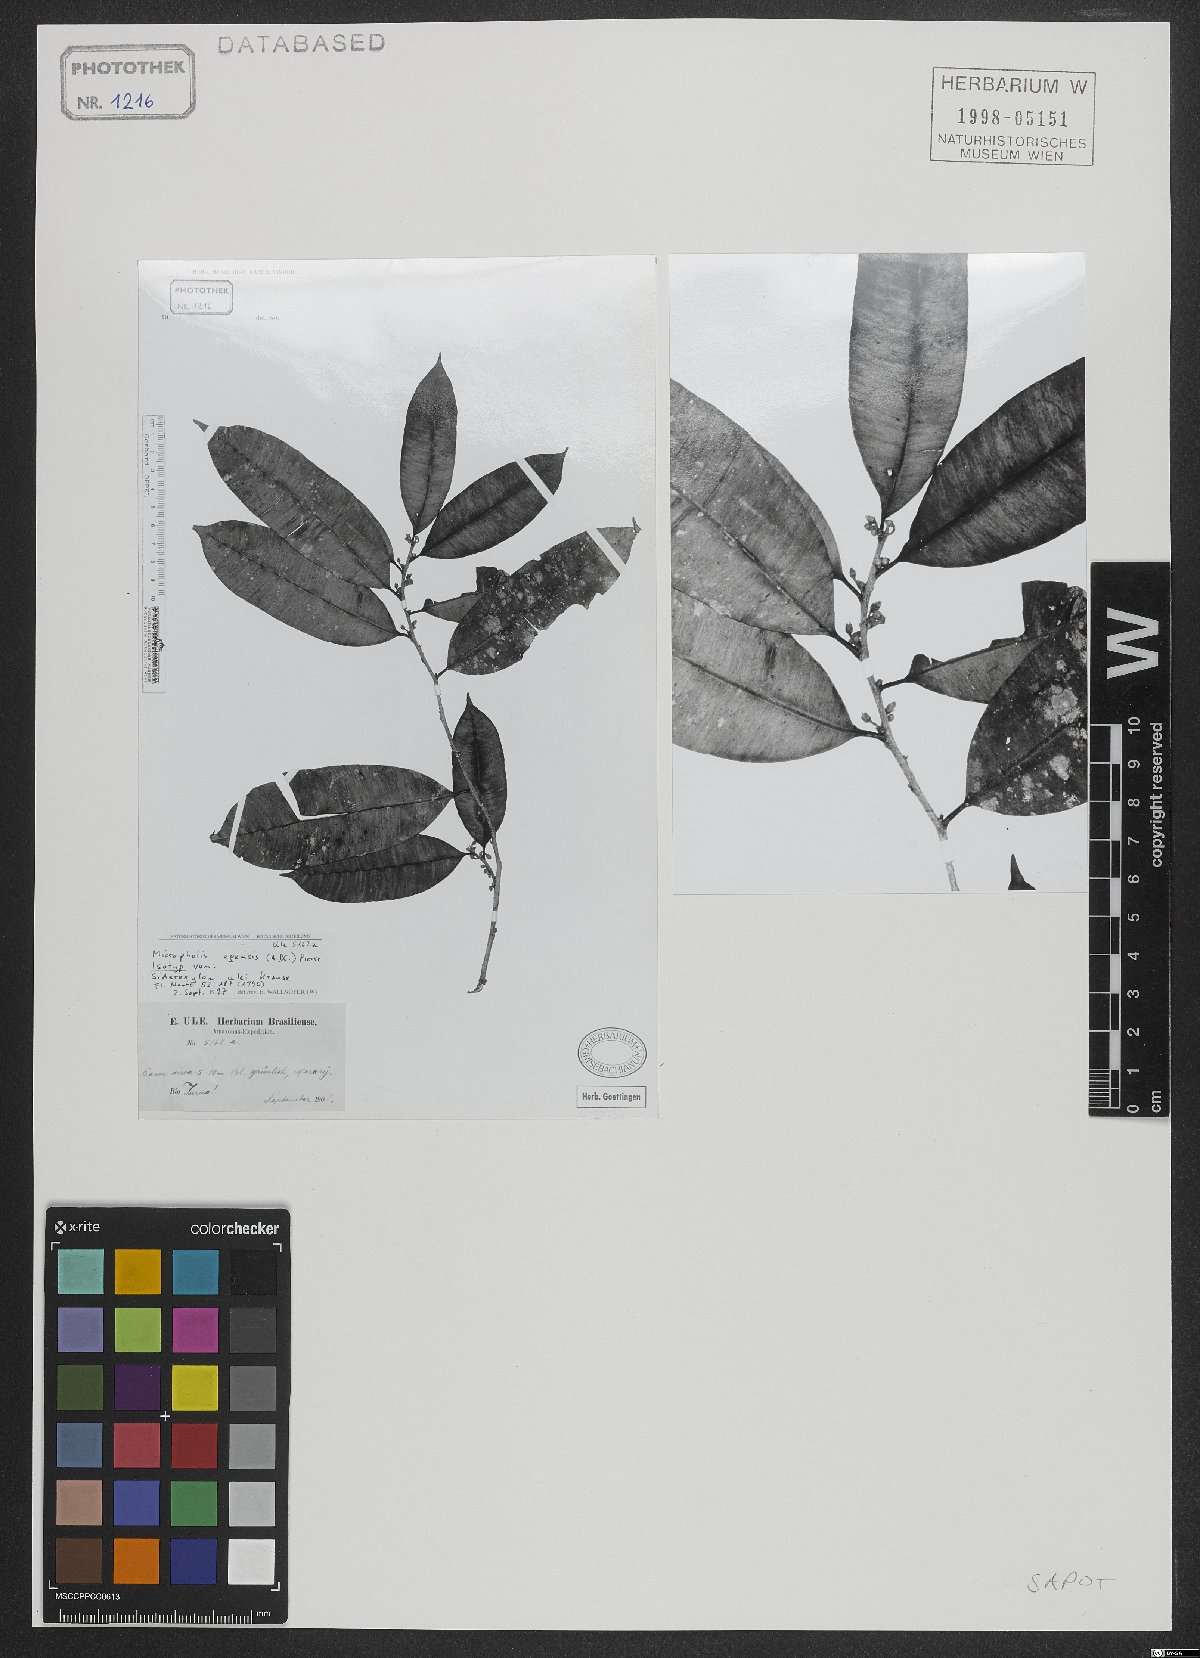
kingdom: Plantae
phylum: Tracheophyta
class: Magnoliopsida
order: Ericales
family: Sapotaceae
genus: Micropholis
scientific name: Micropholis egensis
